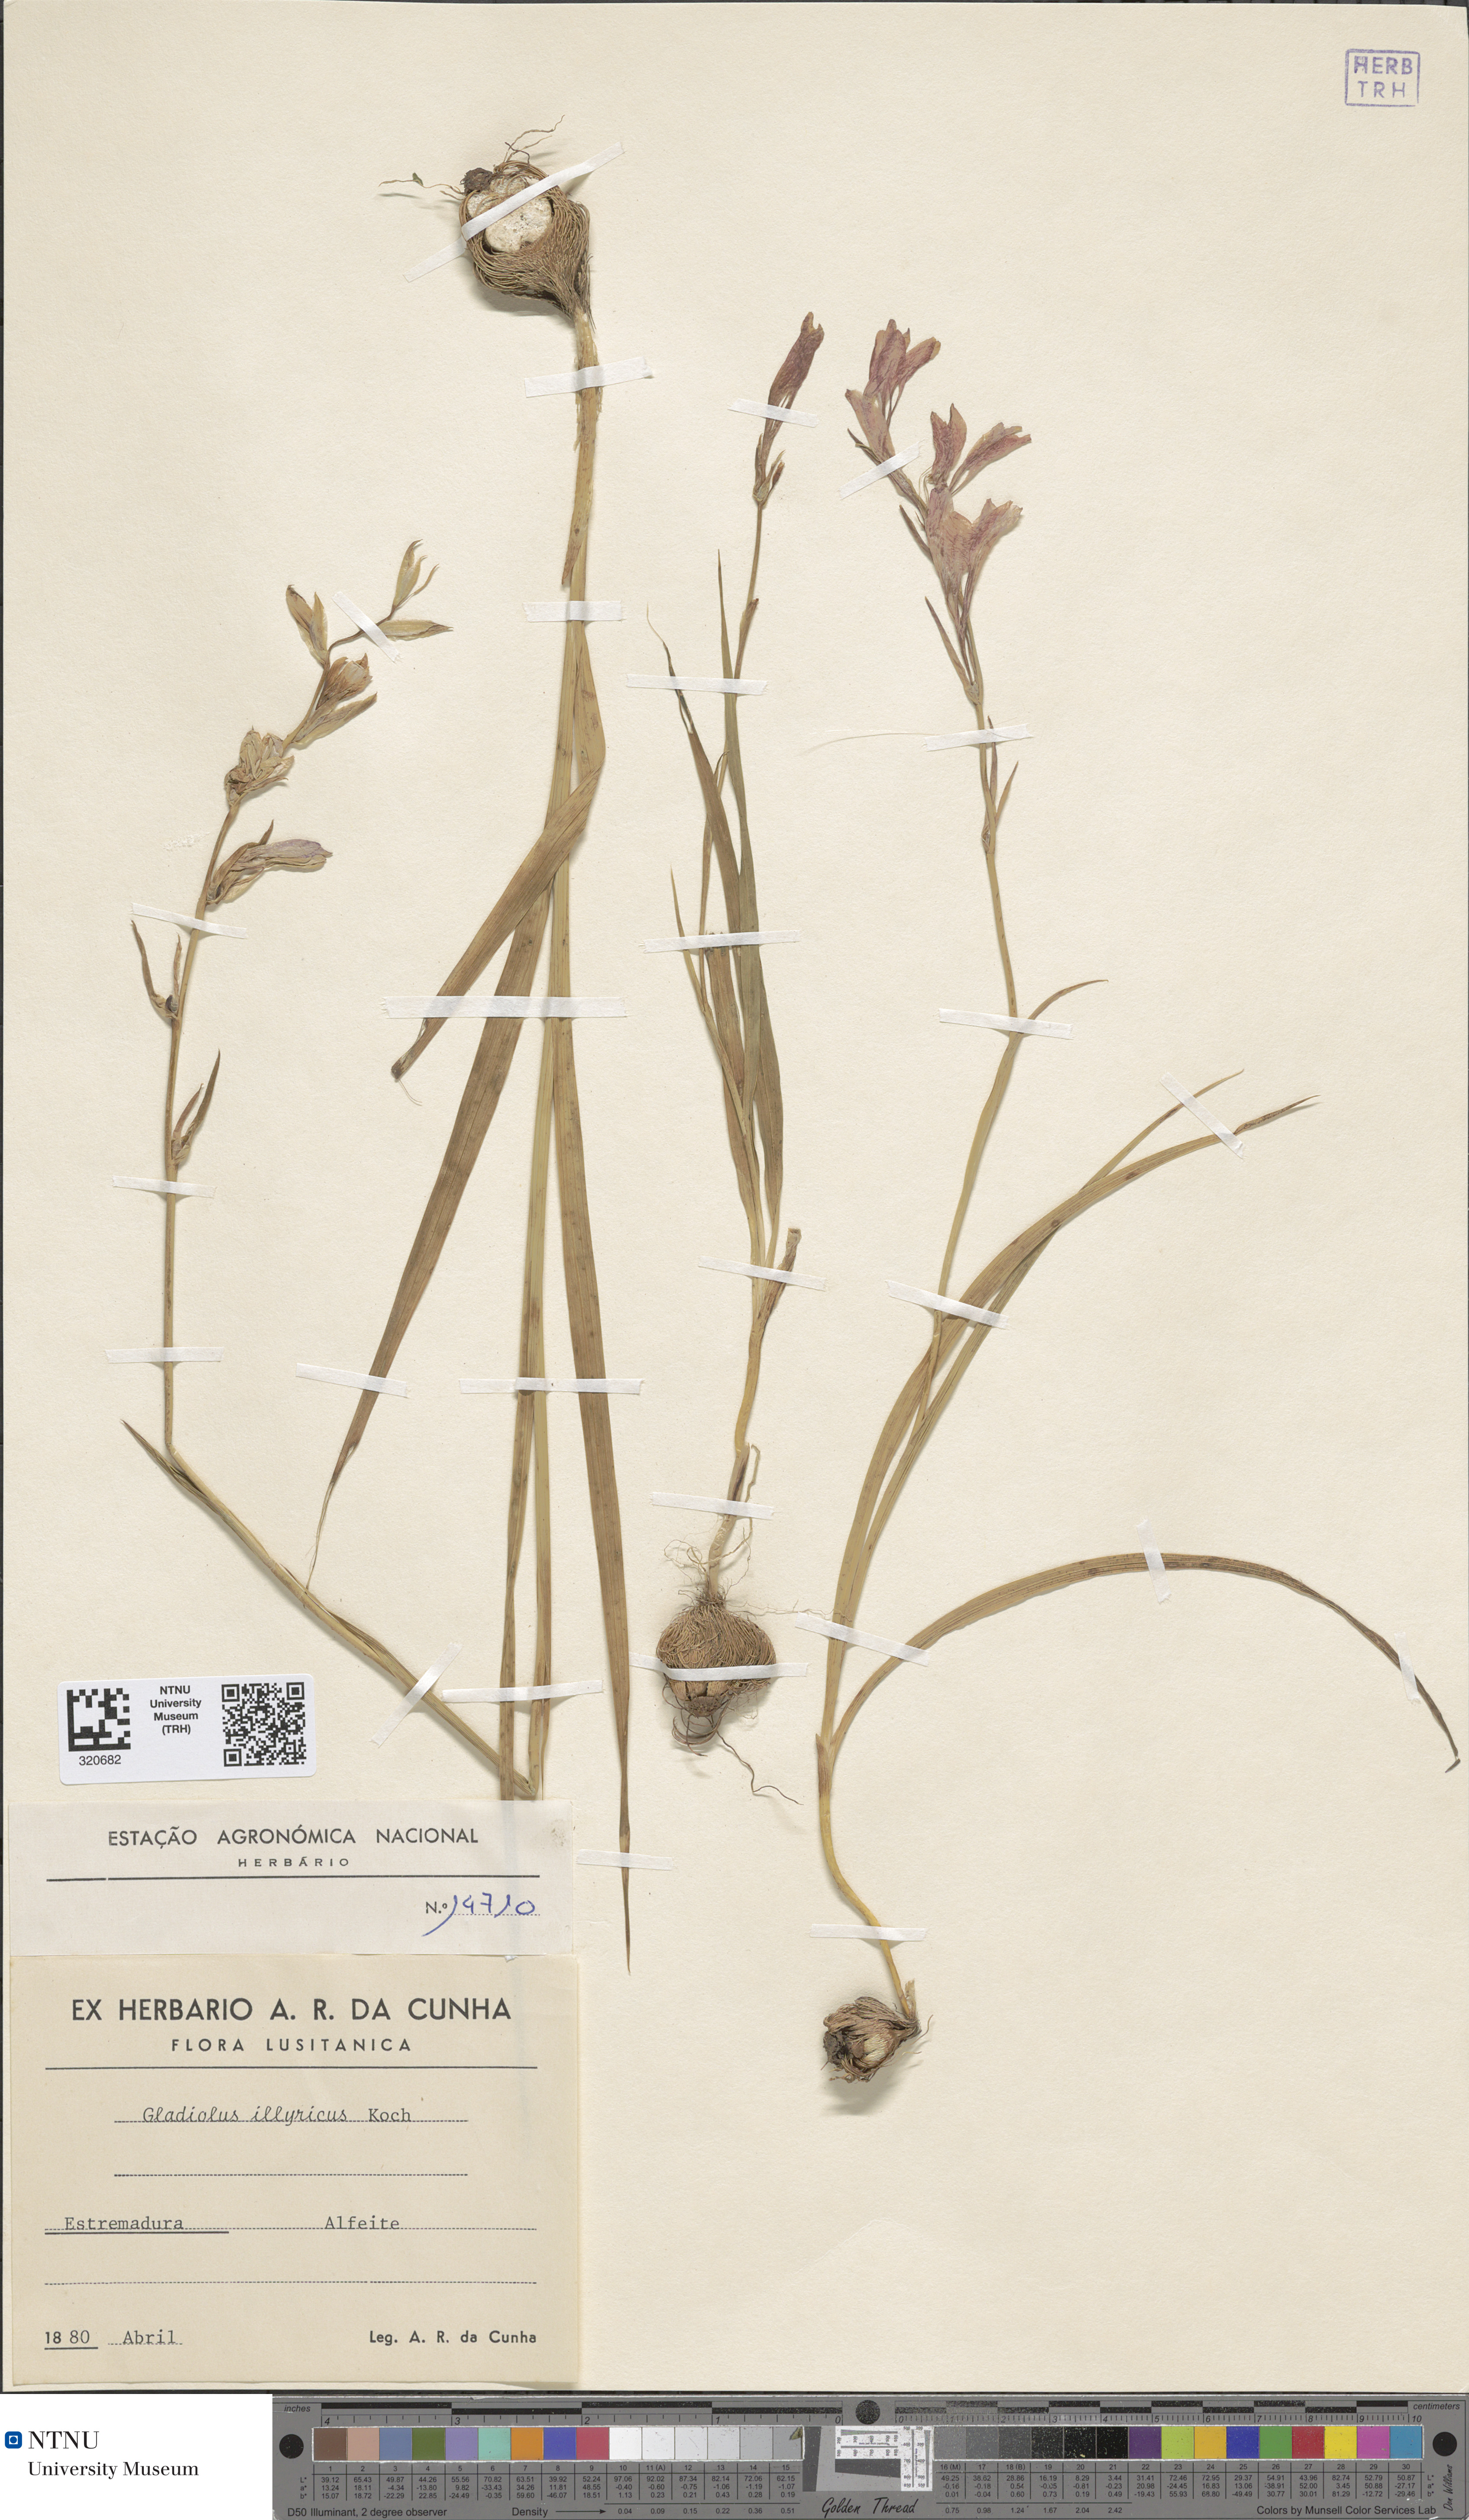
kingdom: Plantae
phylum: Tracheophyta
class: Liliopsida
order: Asparagales
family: Iridaceae
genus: Gladiolus
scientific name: Gladiolus illyricus
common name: Wild gladiolus
